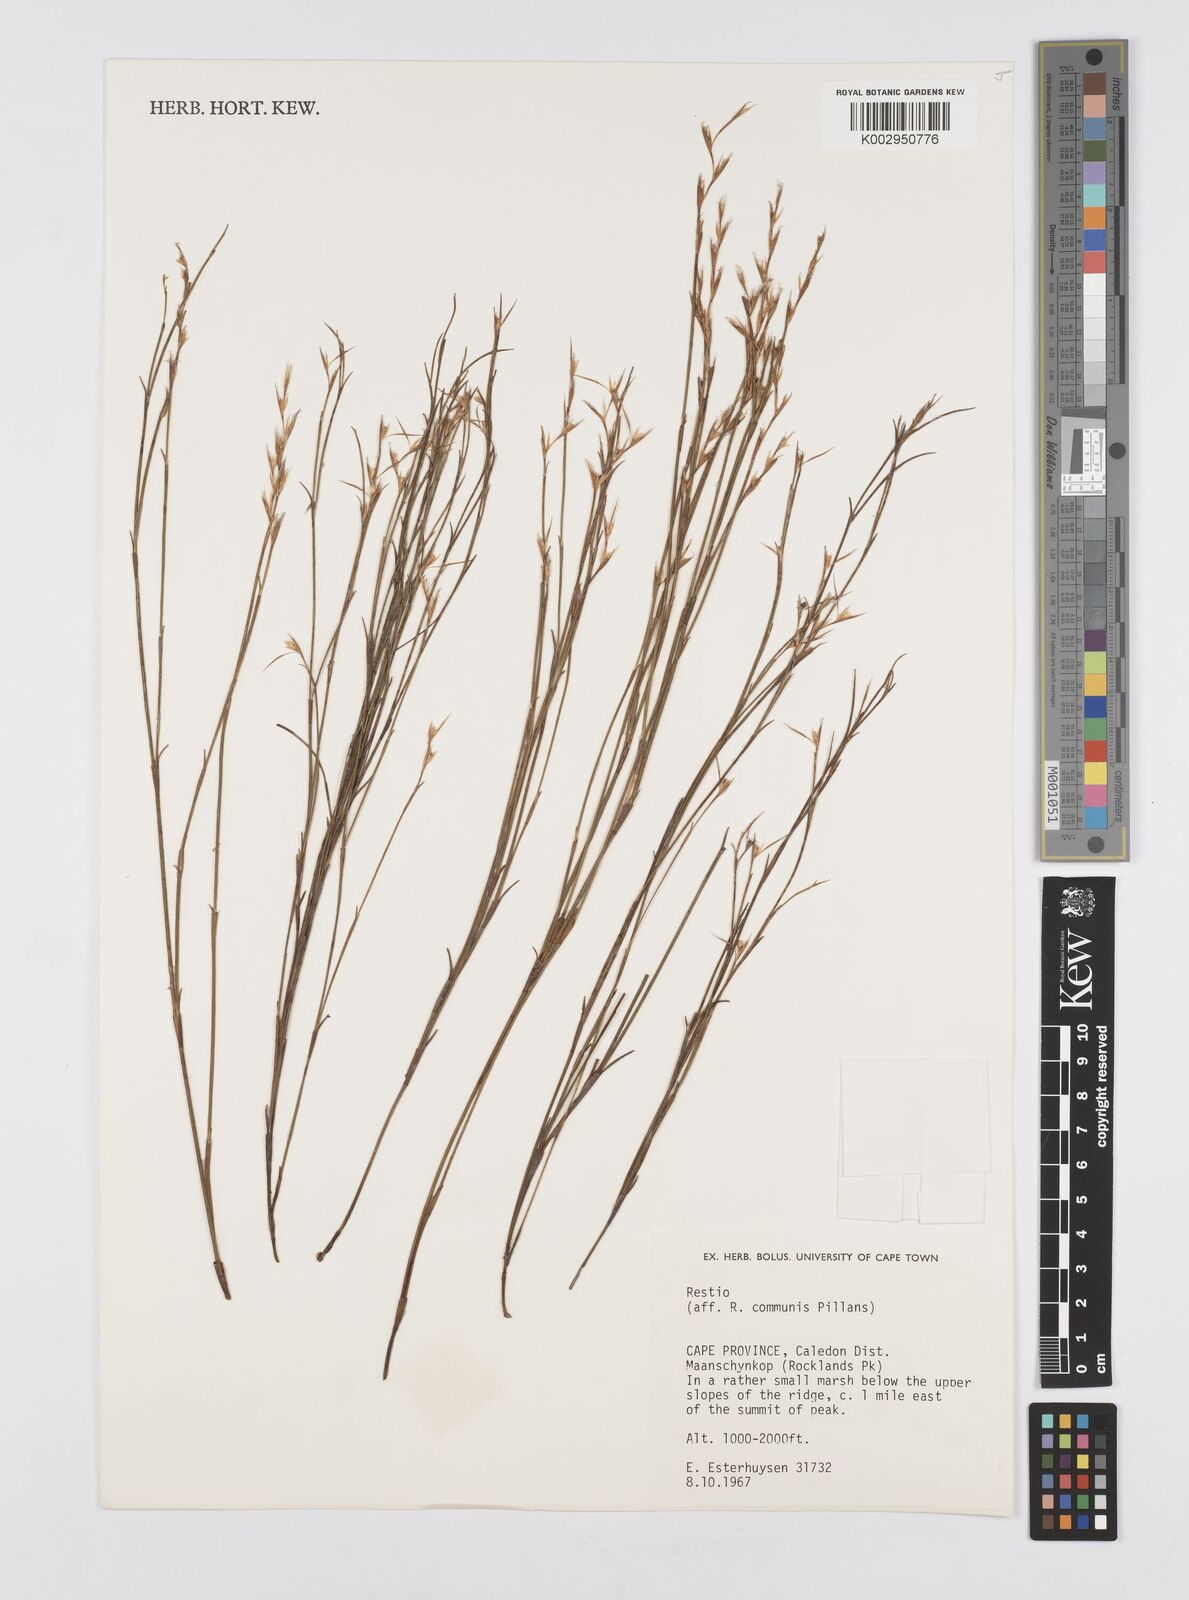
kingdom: Plantae
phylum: Tracheophyta
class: Liliopsida
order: Poales
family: Restionaceae
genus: Restio
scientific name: Restio communis
